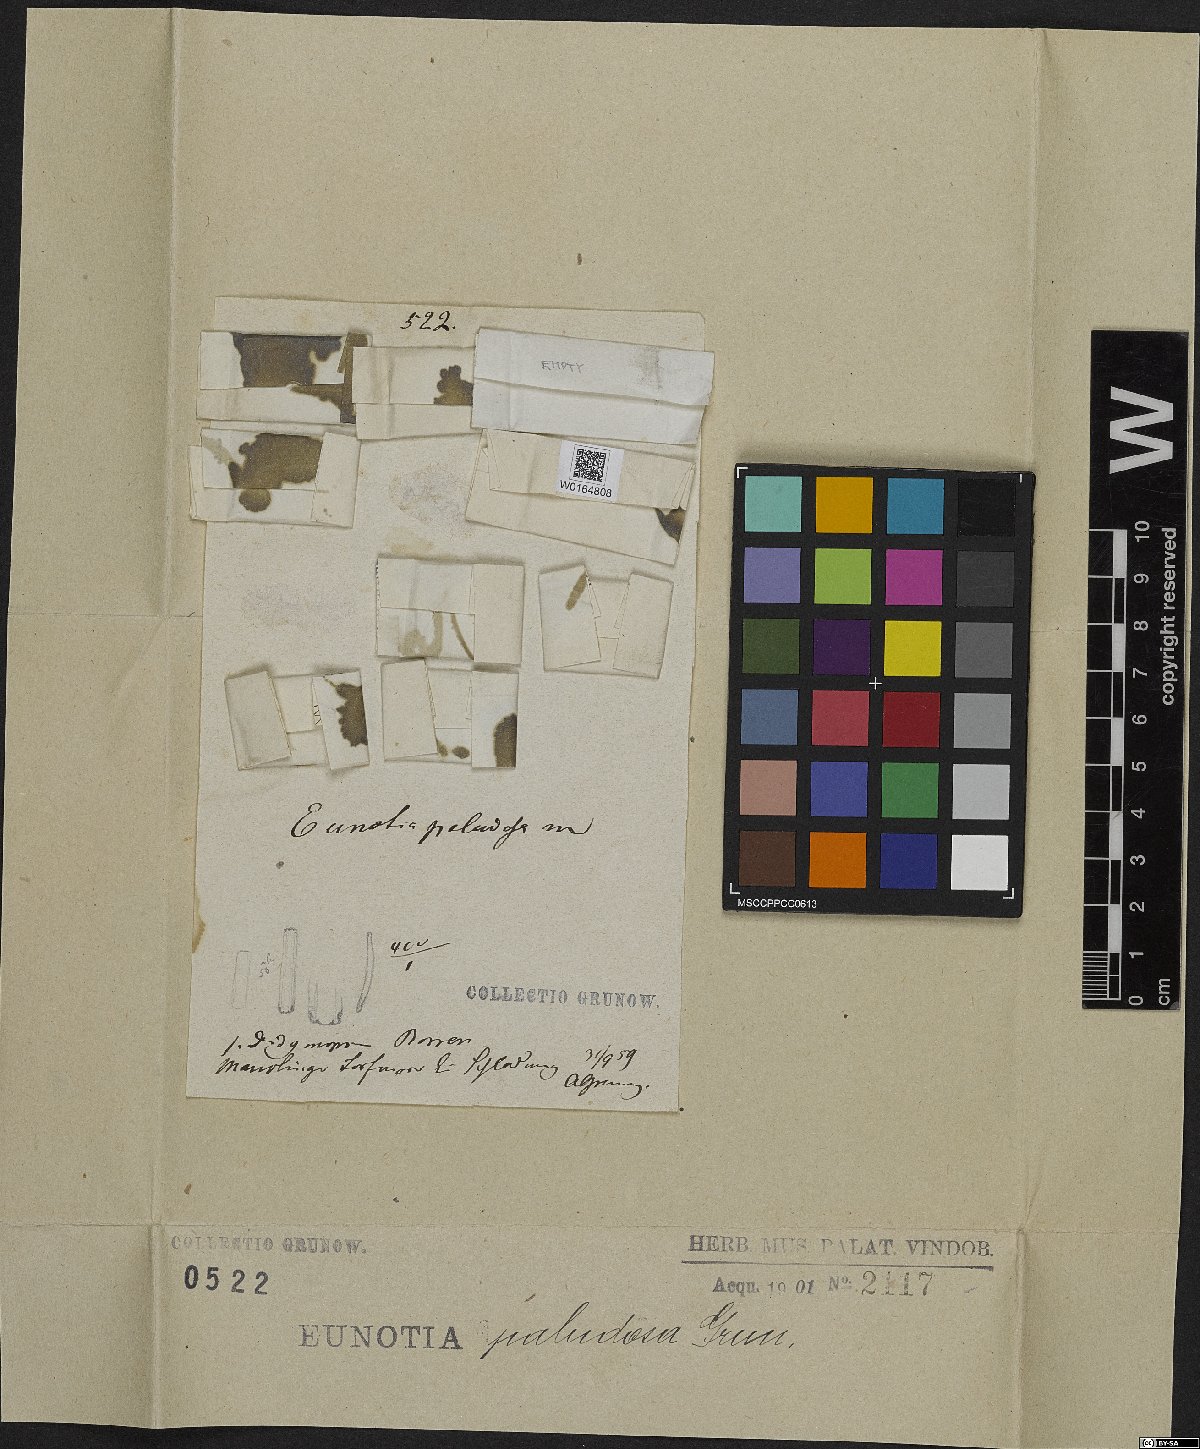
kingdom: Chromista
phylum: Ochrophyta
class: Bacillariophyceae
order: Eunotiales
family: Eunotiaceae
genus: Eunotia
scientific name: Eunotia paludosa
